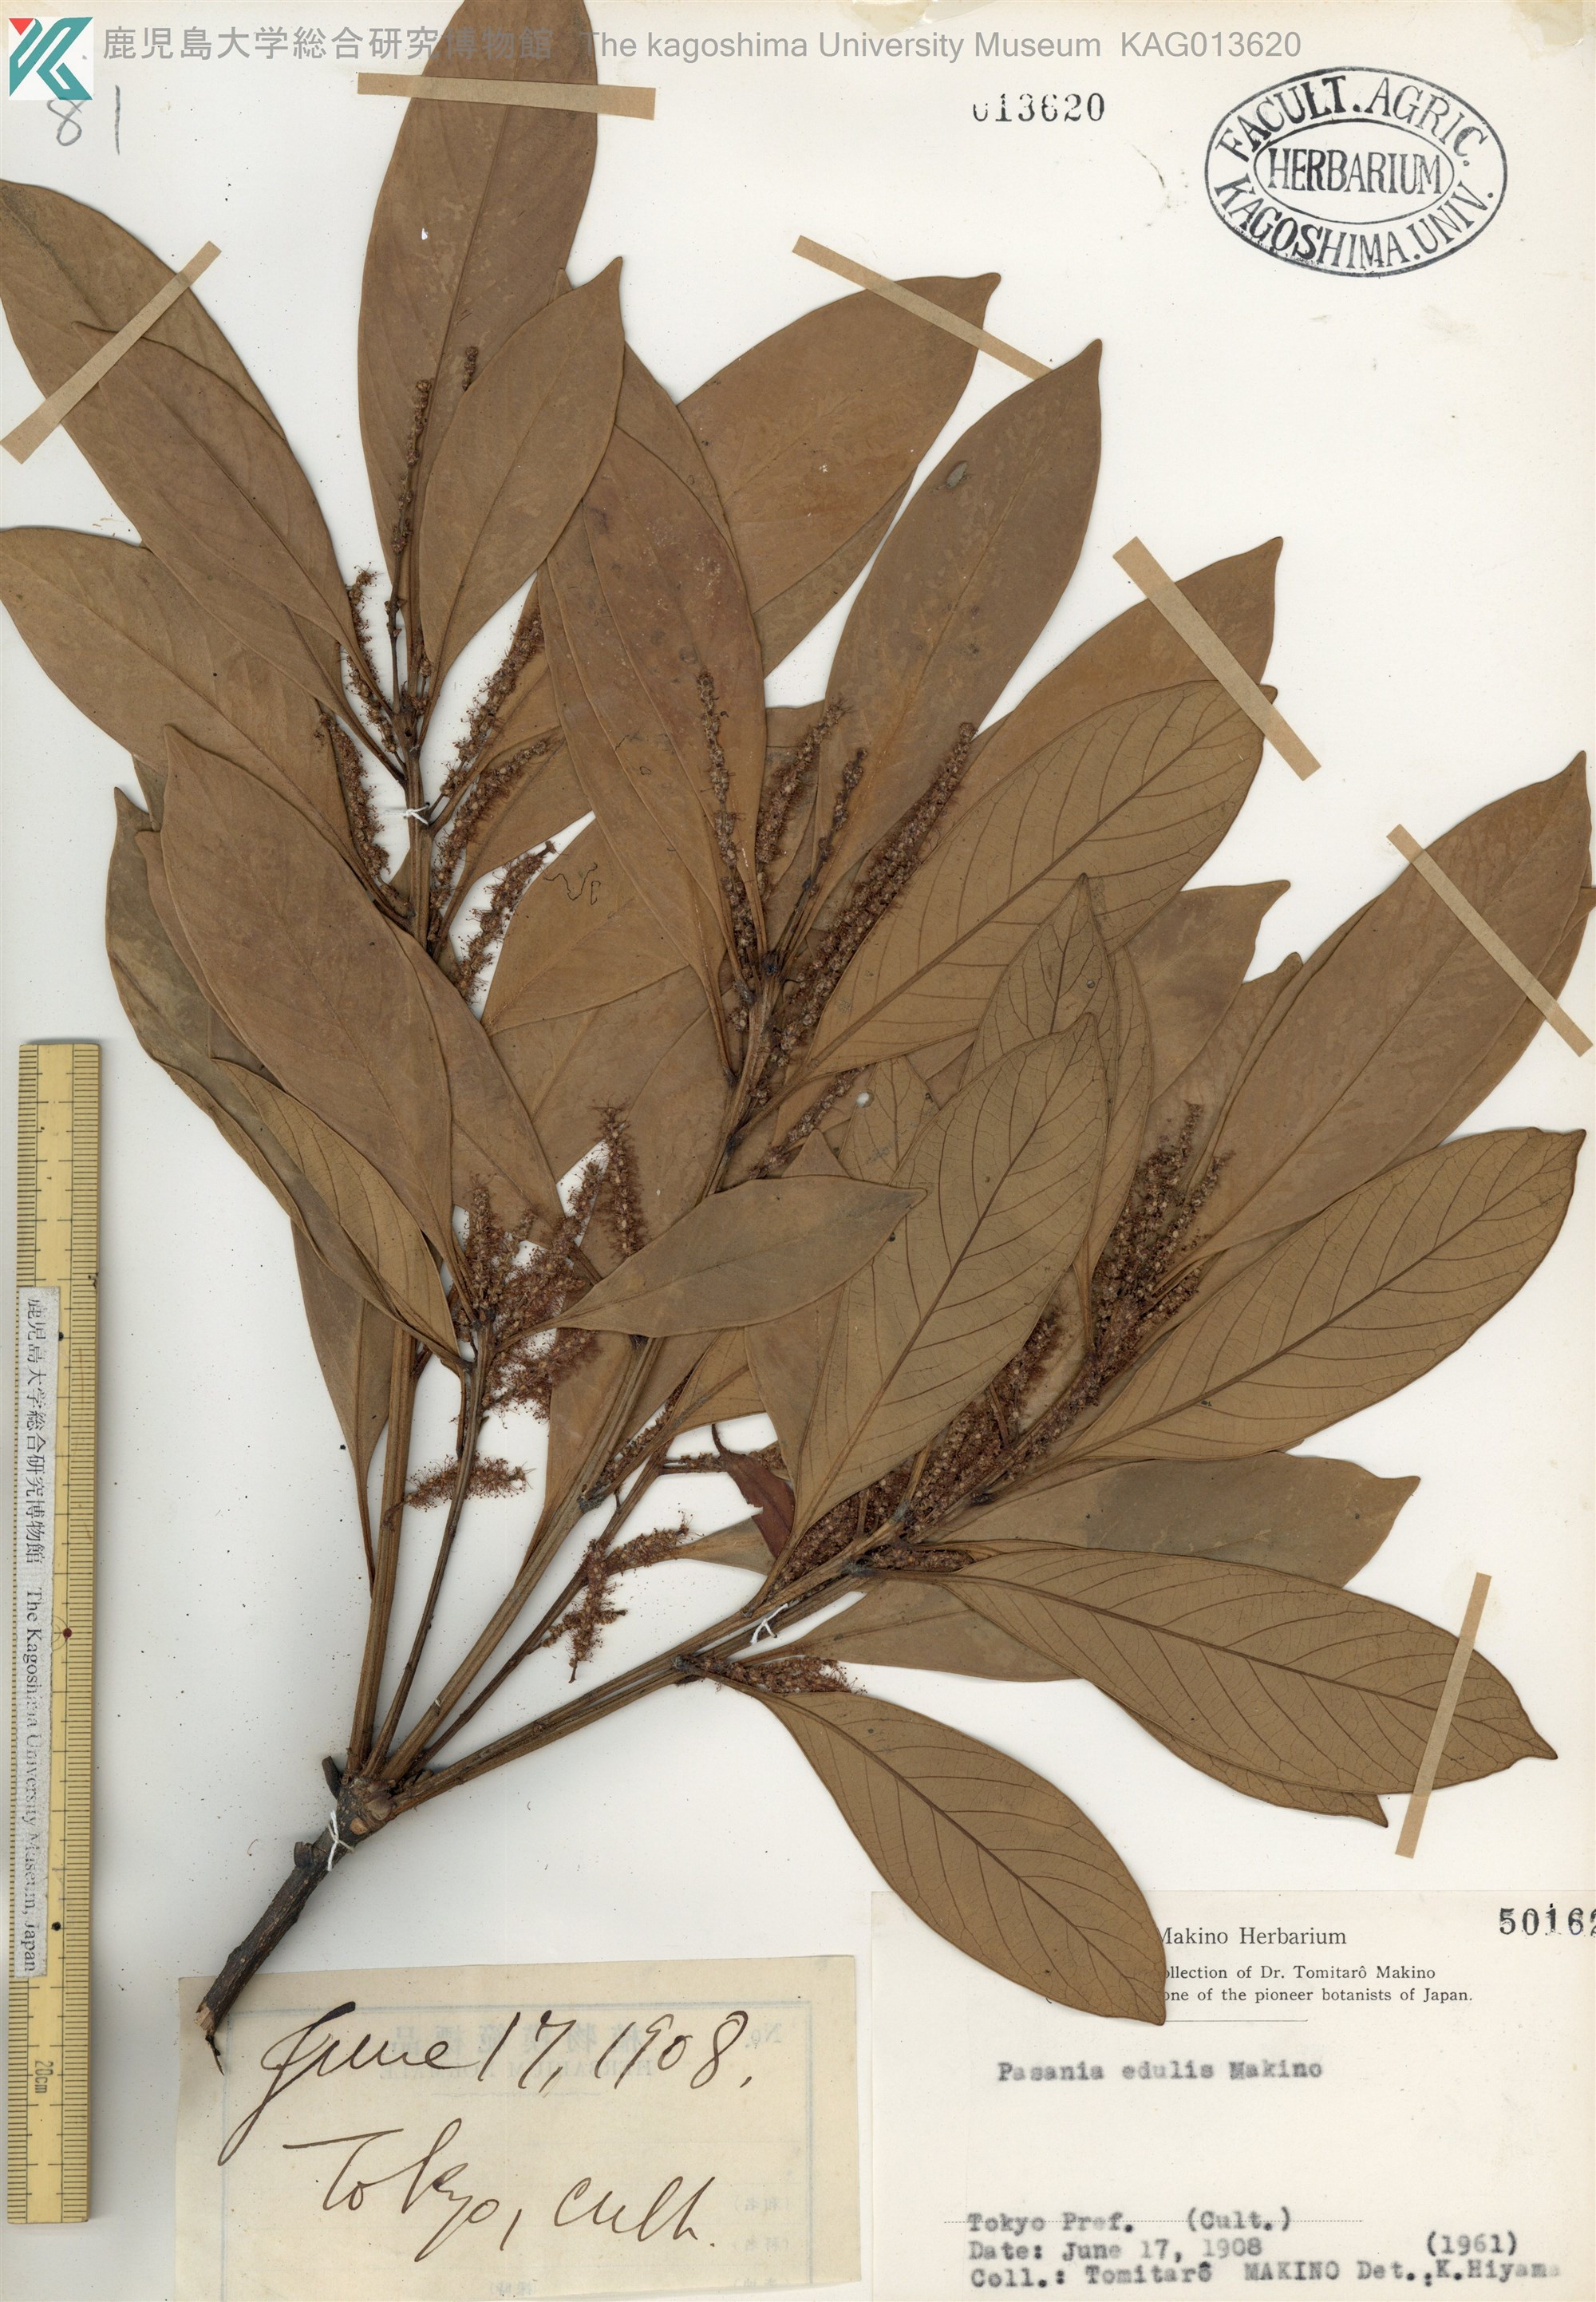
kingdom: Plantae
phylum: Tracheophyta
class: Magnoliopsida
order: Fagales
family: Fagaceae
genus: Lithocarpus
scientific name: Lithocarpus edulis
